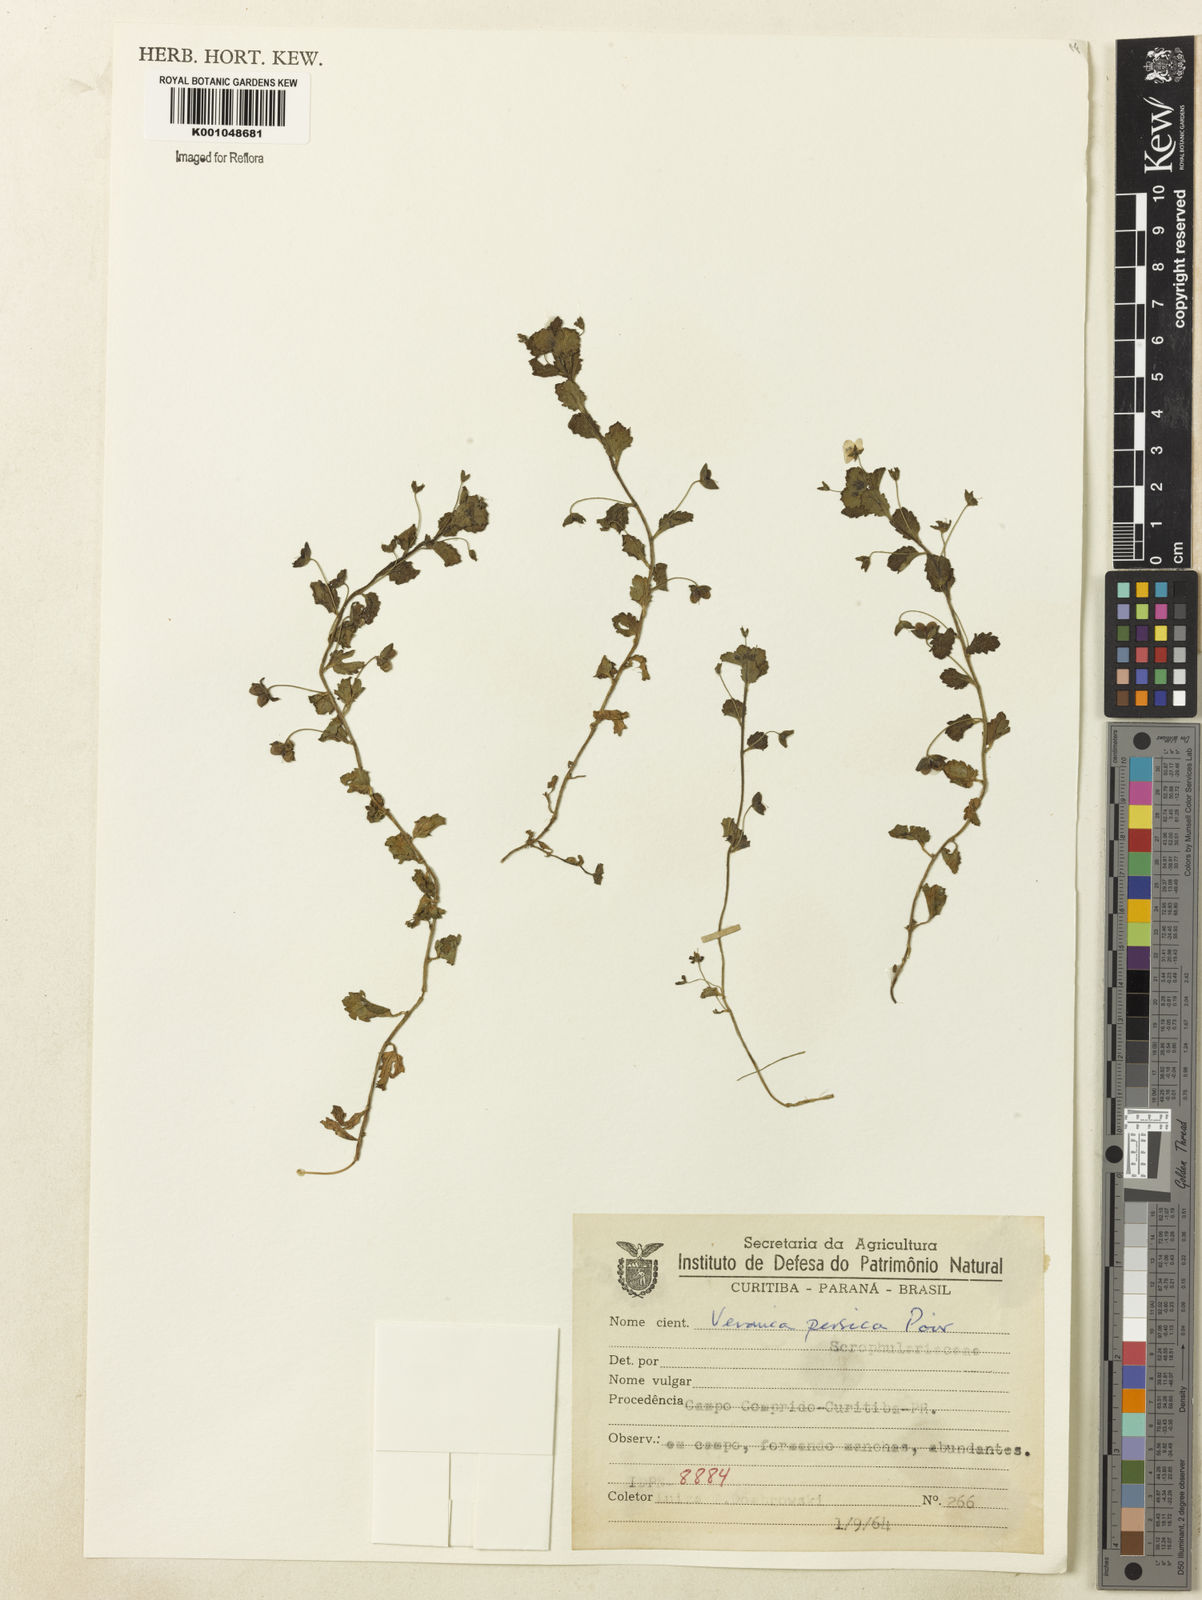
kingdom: Plantae
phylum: Tracheophyta
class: Magnoliopsida
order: Lamiales
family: Plantaginaceae
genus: Veronica
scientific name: Veronica persica
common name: Common field-speedwell
